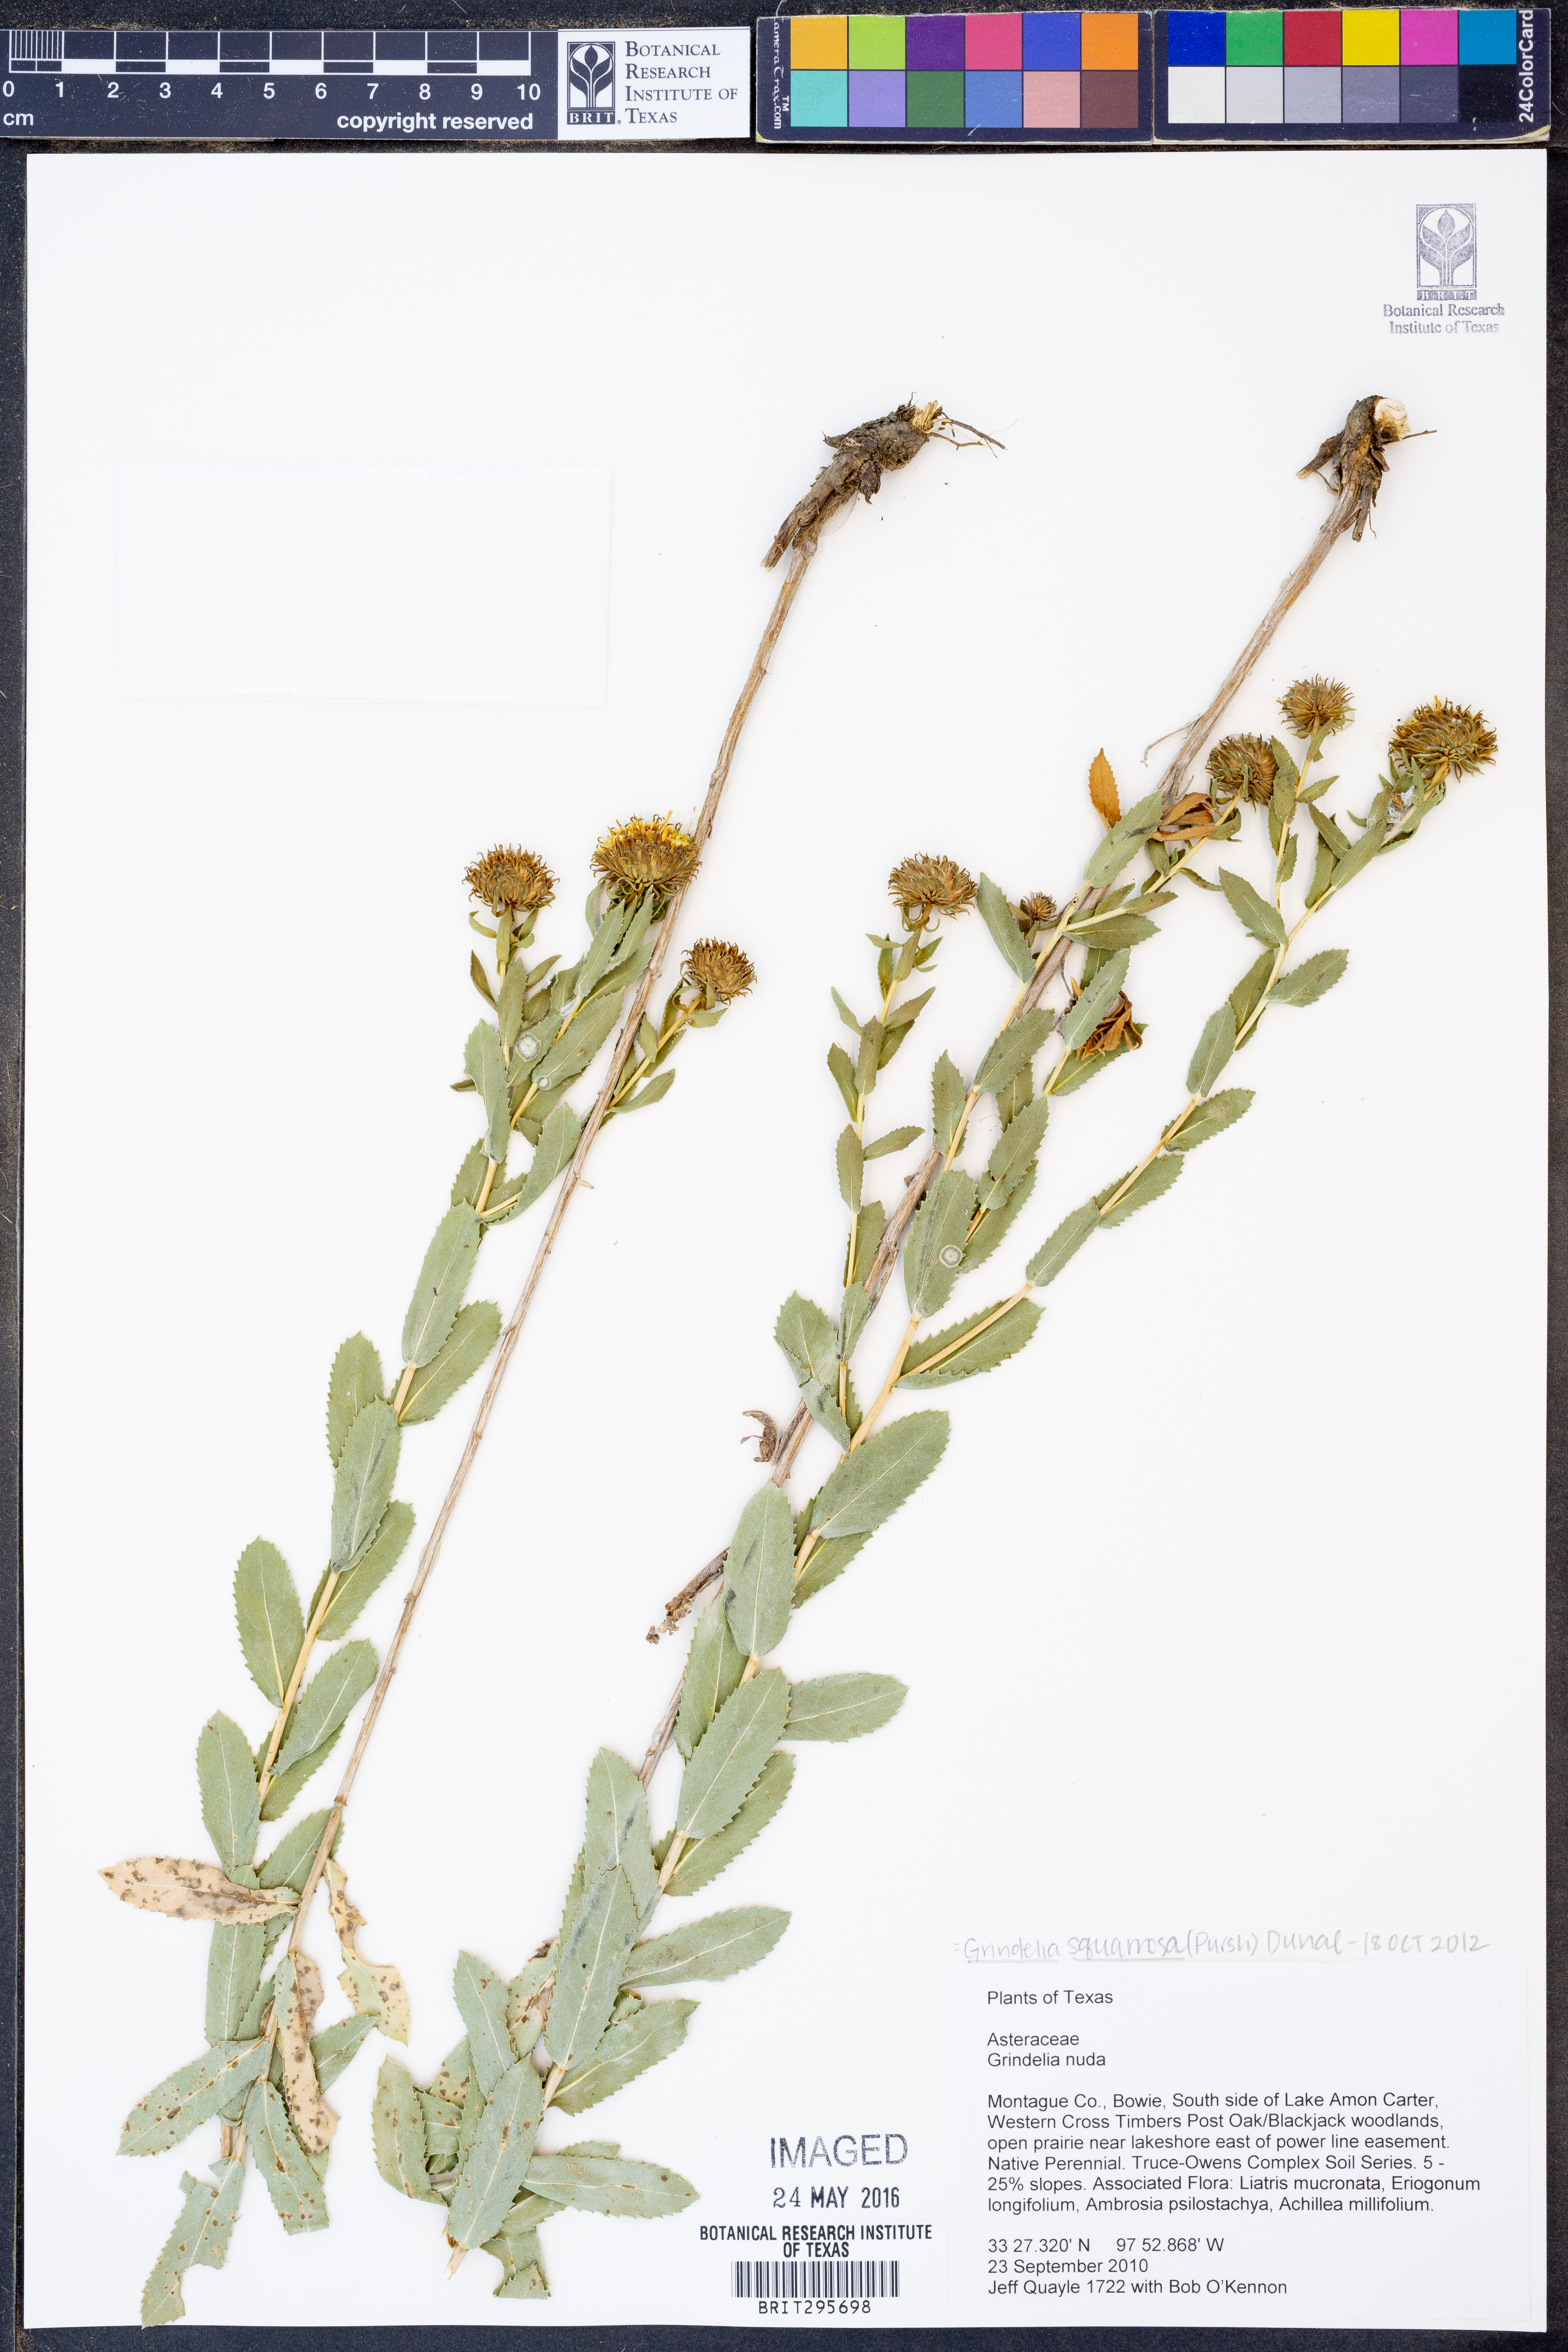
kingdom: Plantae
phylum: Tracheophyta
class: Magnoliopsida
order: Asterales
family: Asteraceae
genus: Grindelia
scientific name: Grindelia squarrosa
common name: Curly-cup gumweed
